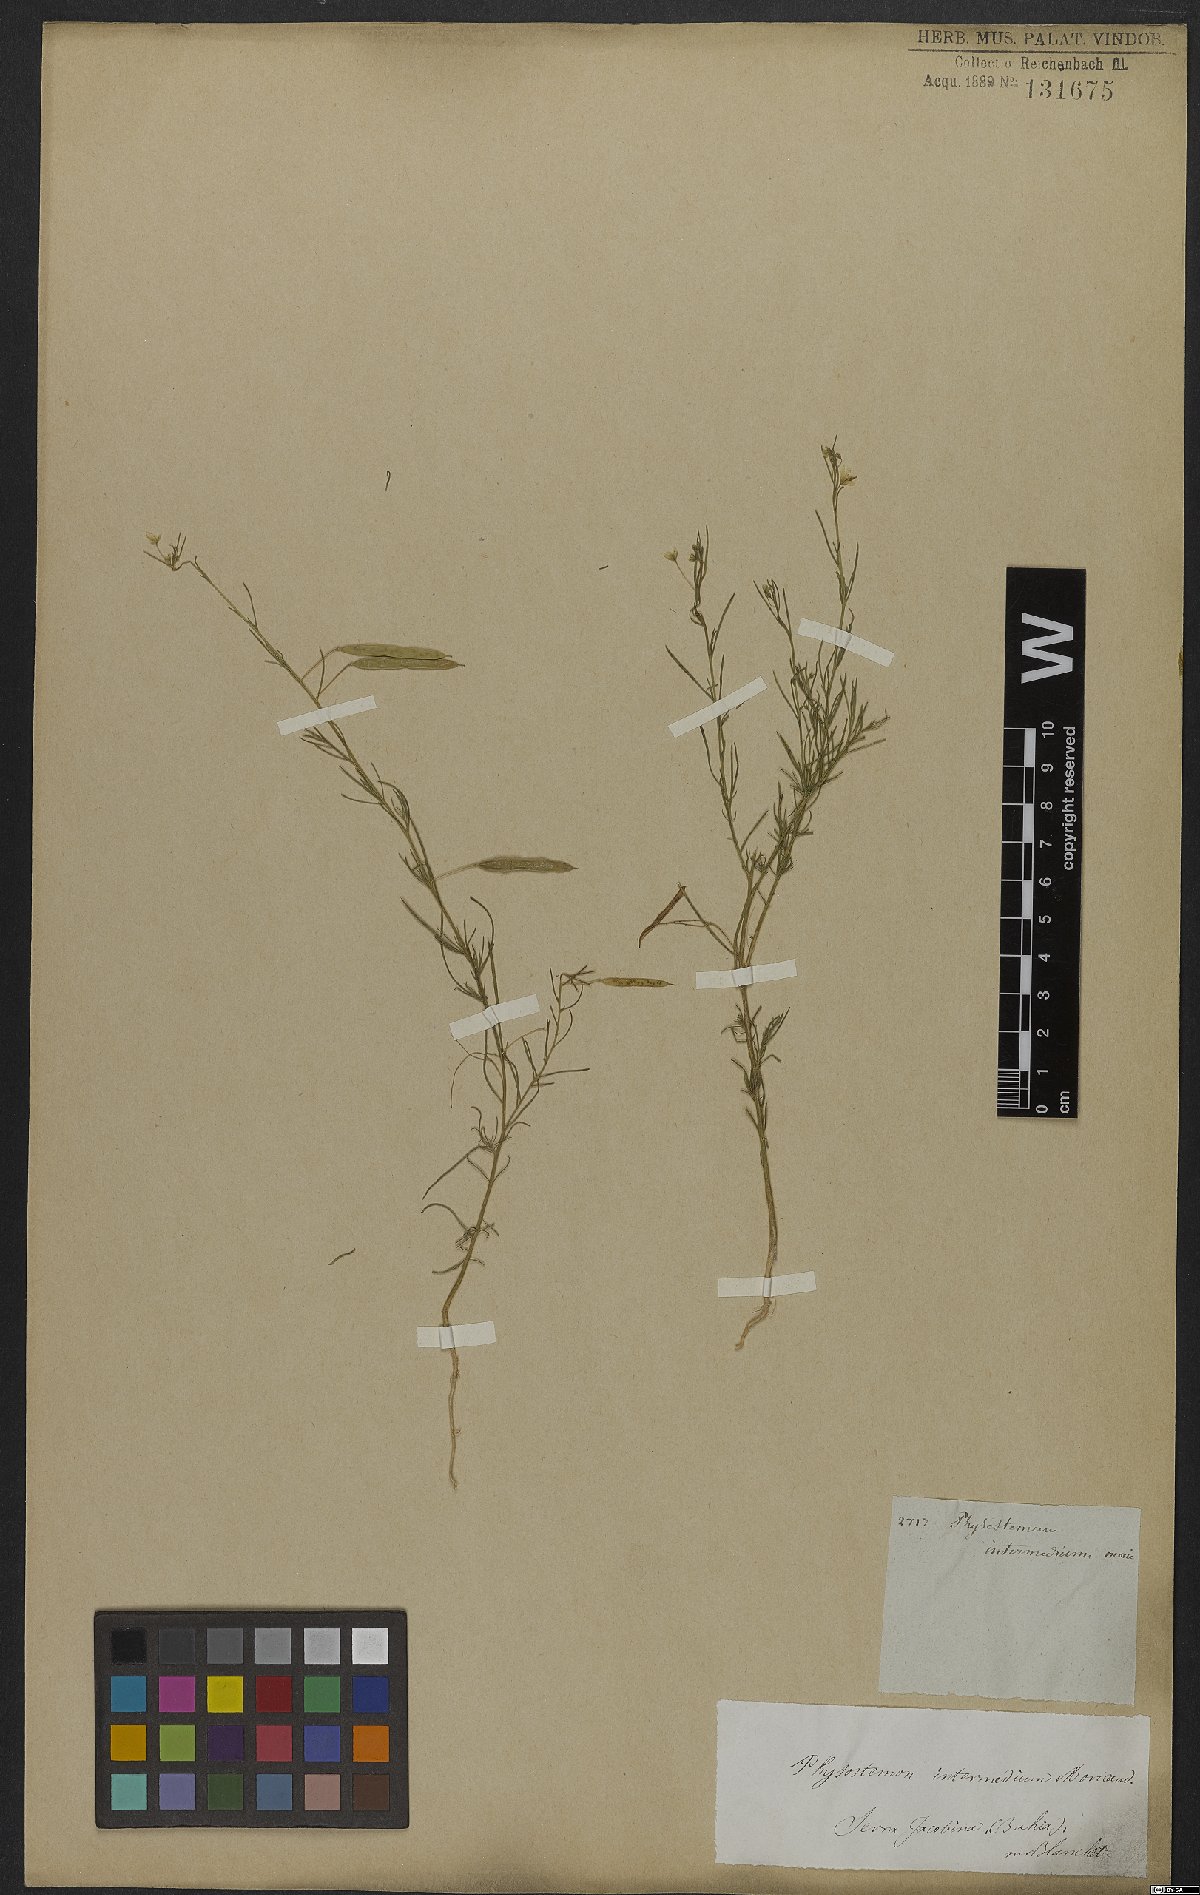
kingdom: Plantae
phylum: Tracheophyta
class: Magnoliopsida
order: Brassicales
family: Cleomaceae
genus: Andinocleome
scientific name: Andinocleome anomala
